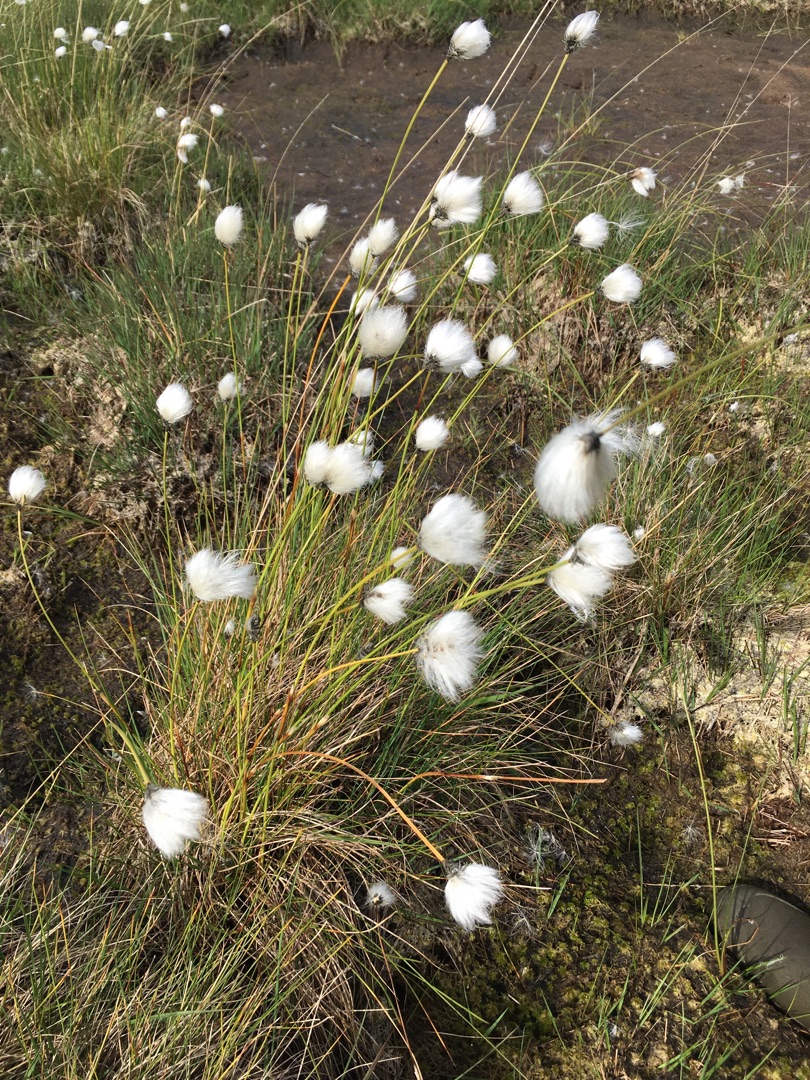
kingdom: Plantae
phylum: Tracheophyta
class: Liliopsida
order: Poales
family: Cyperaceae
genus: Eriophorum
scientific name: Eriophorum vaginatum
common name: Tue-kæruld
